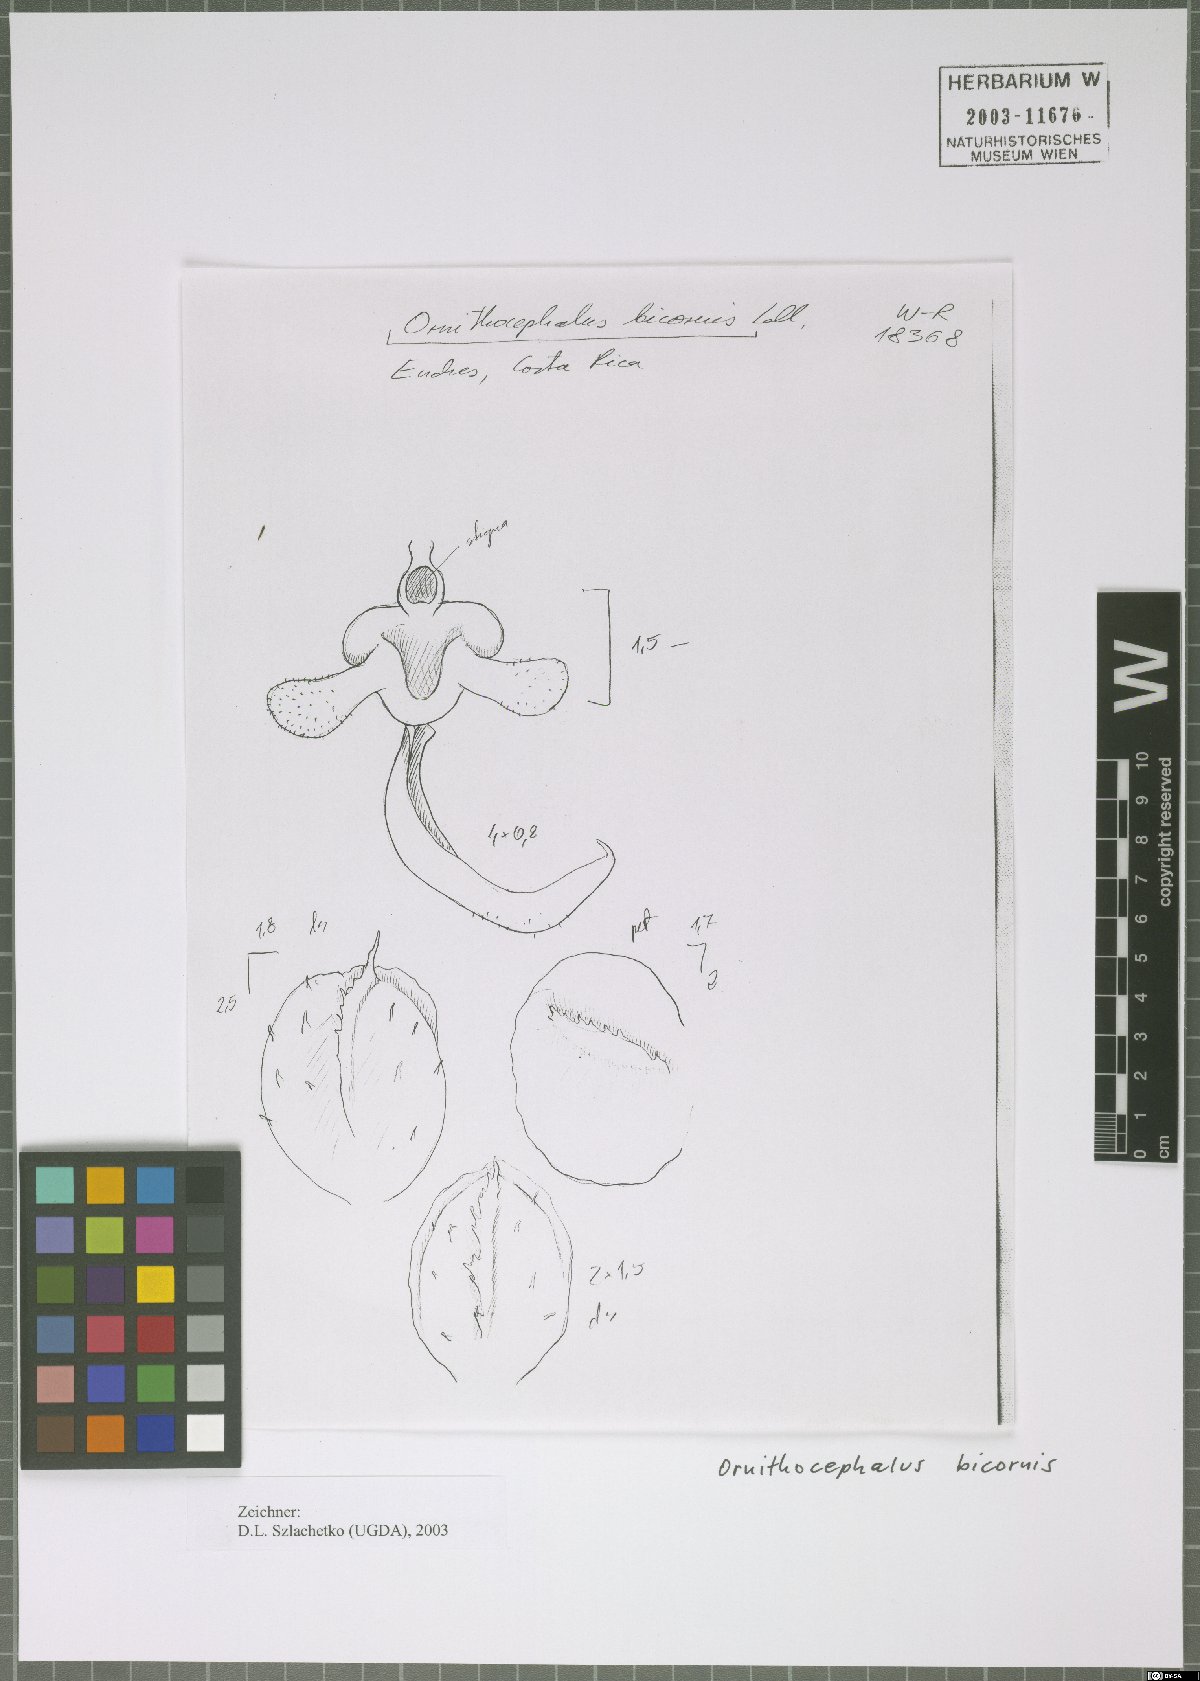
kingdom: Plantae
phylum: Tracheophyta
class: Liliopsida
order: Asparagales
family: Orchidaceae
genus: Ornithocephalus
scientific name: Ornithocephalus bicornis
